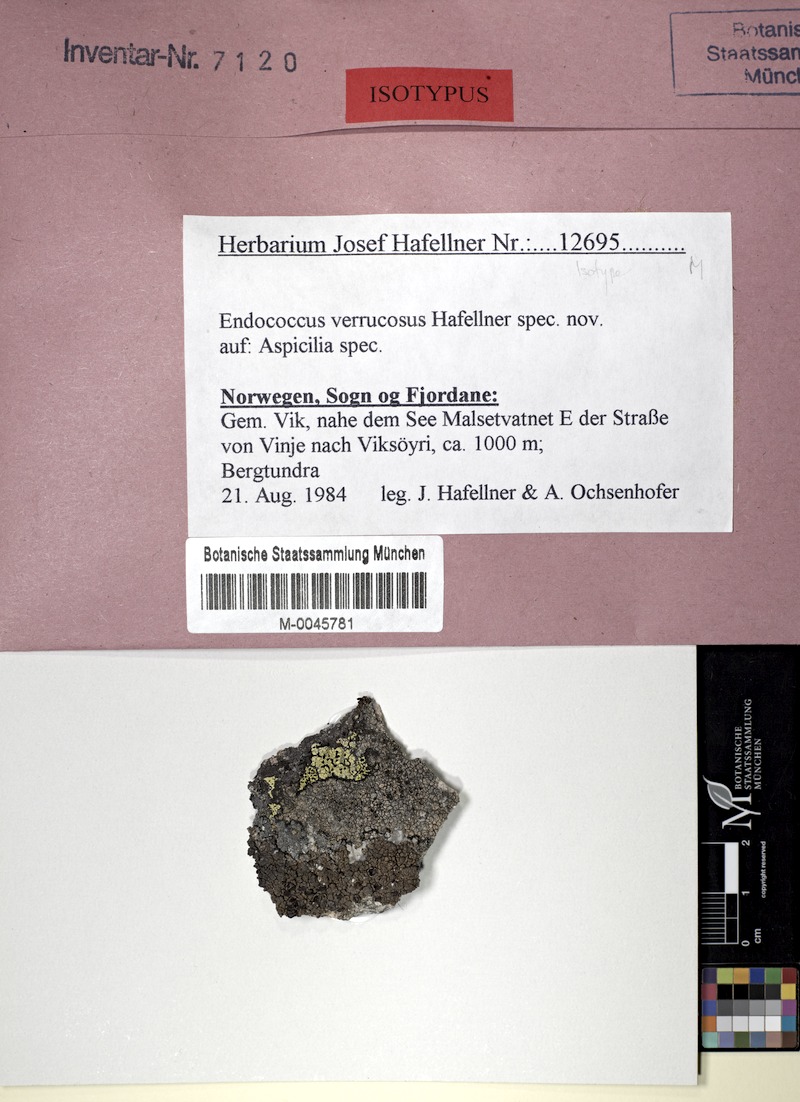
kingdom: Fungi
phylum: Ascomycota
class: Lecanoromycetes
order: Pertusariales
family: Megasporaceae
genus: Aspicilia
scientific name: Aspicilia
